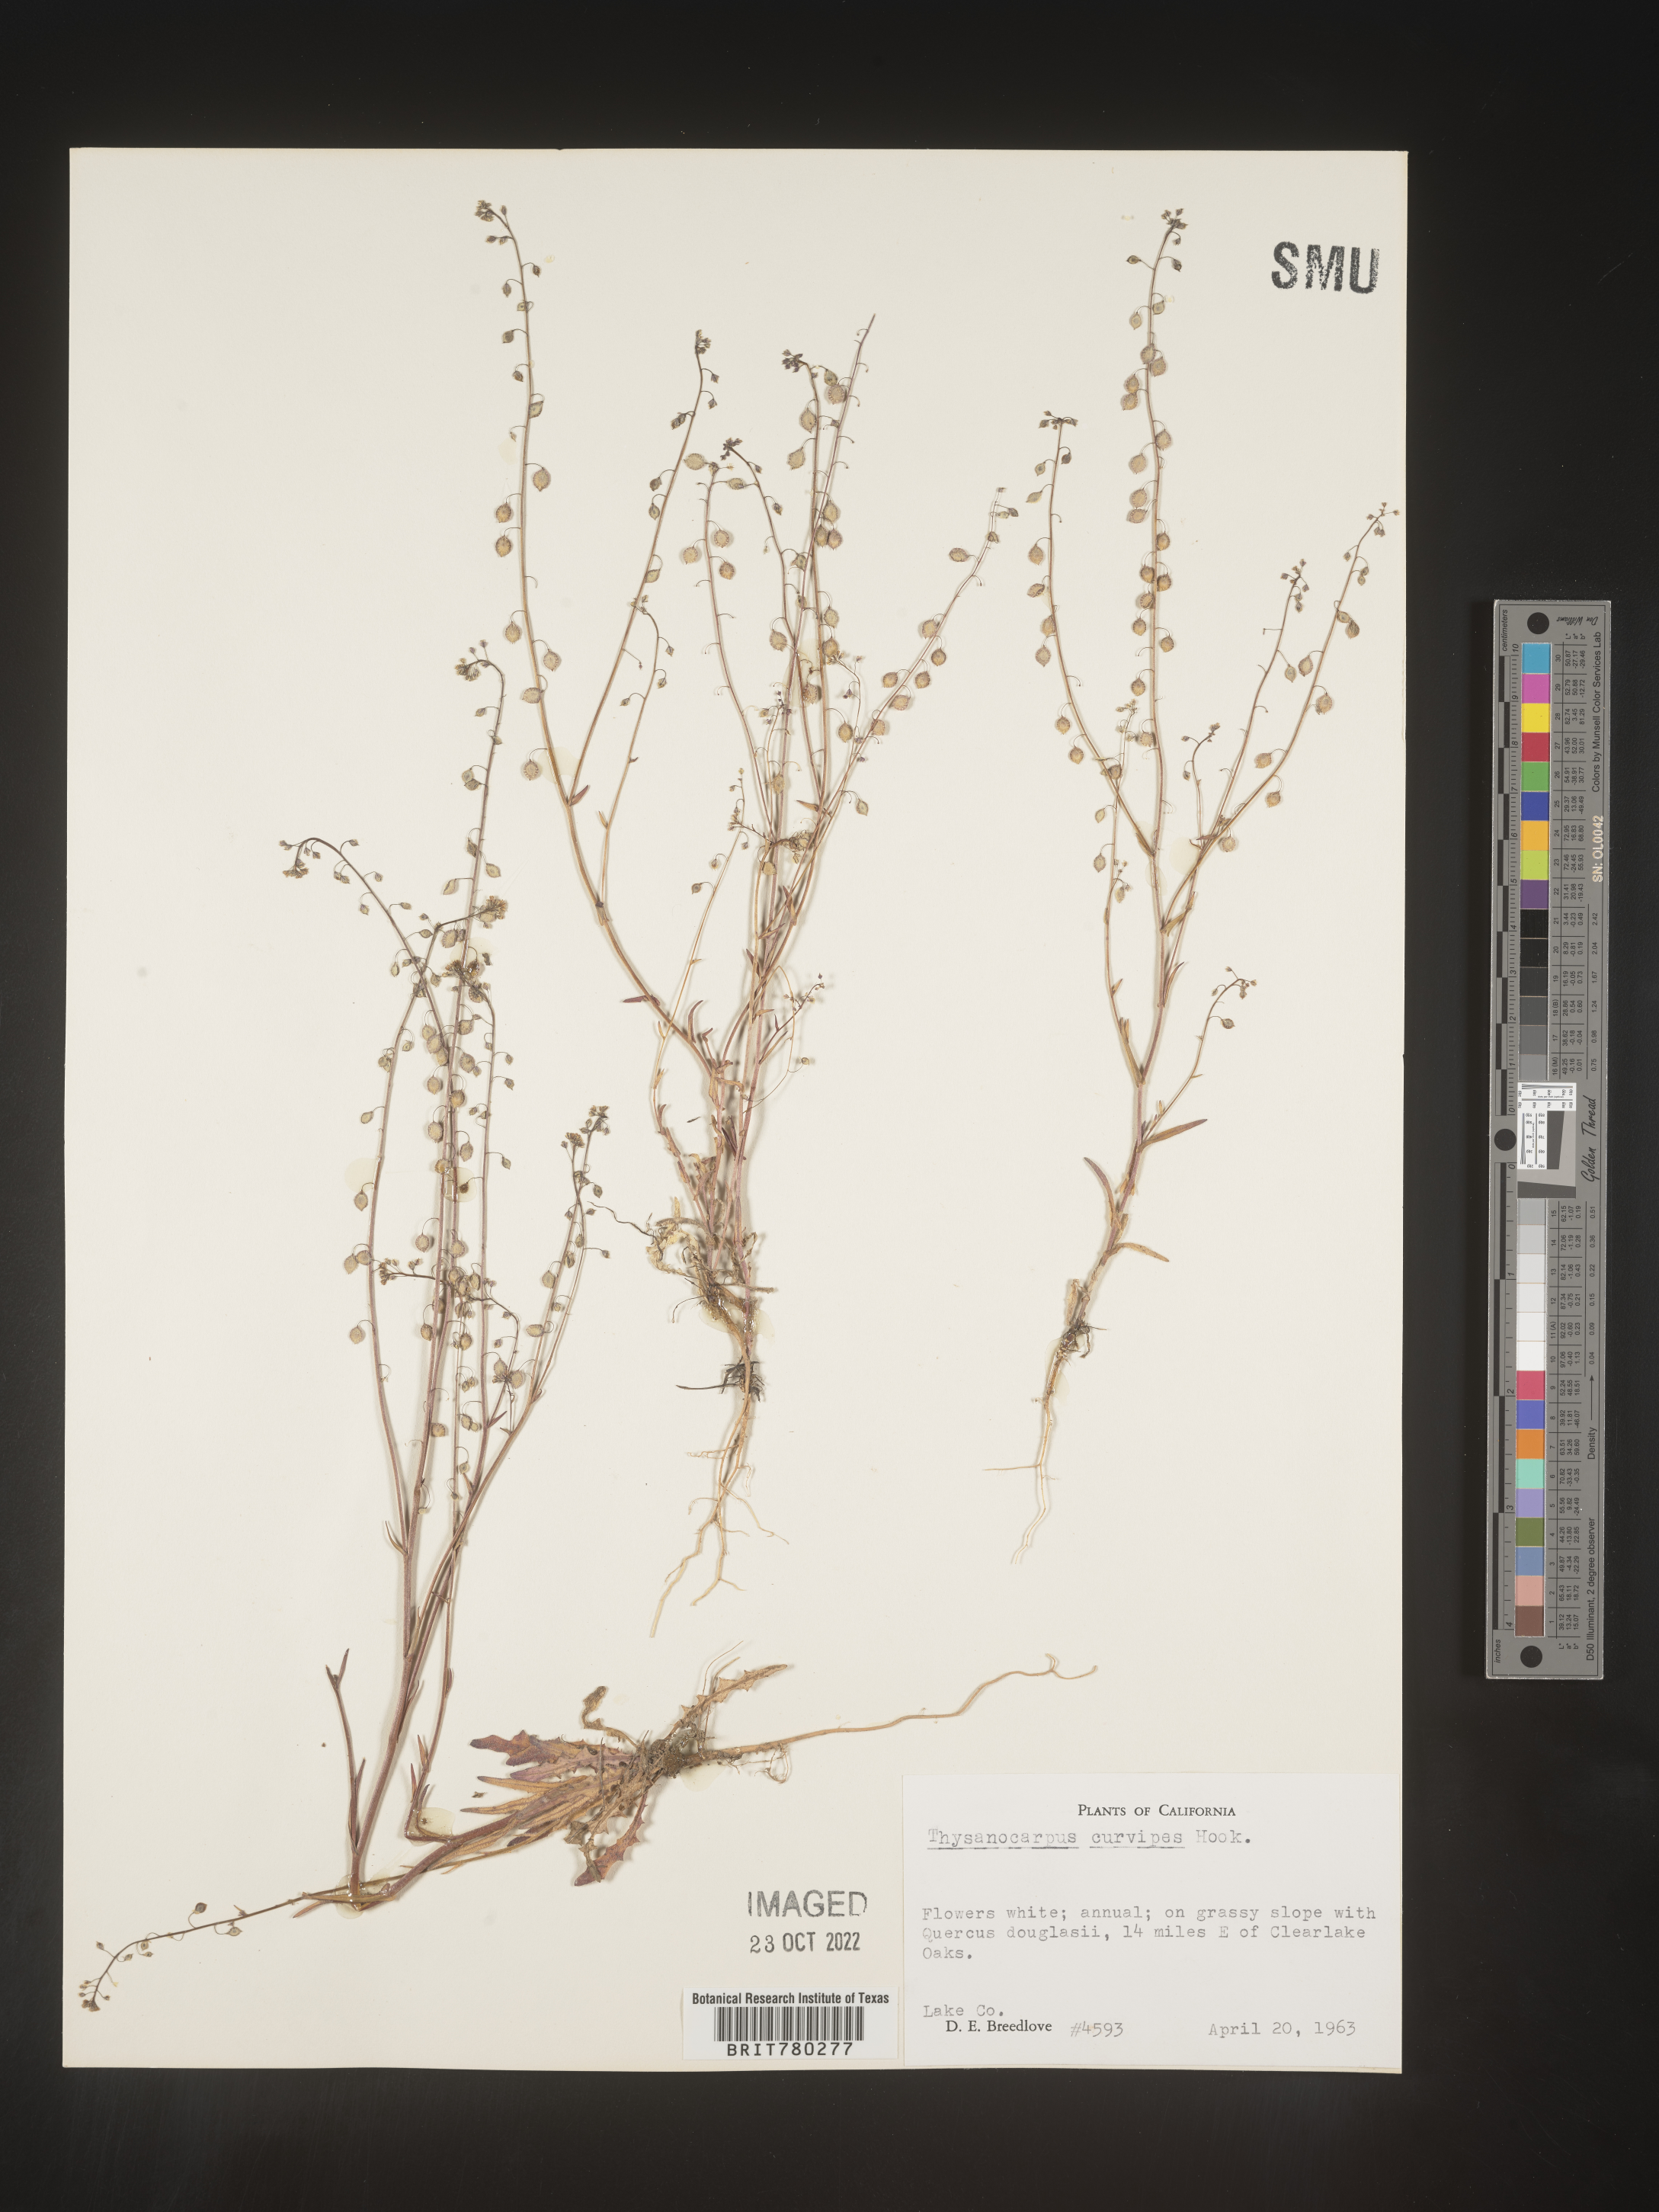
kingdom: Plantae
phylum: Tracheophyta
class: Magnoliopsida
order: Brassicales
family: Brassicaceae
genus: Thysanocarpus
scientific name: Thysanocarpus
